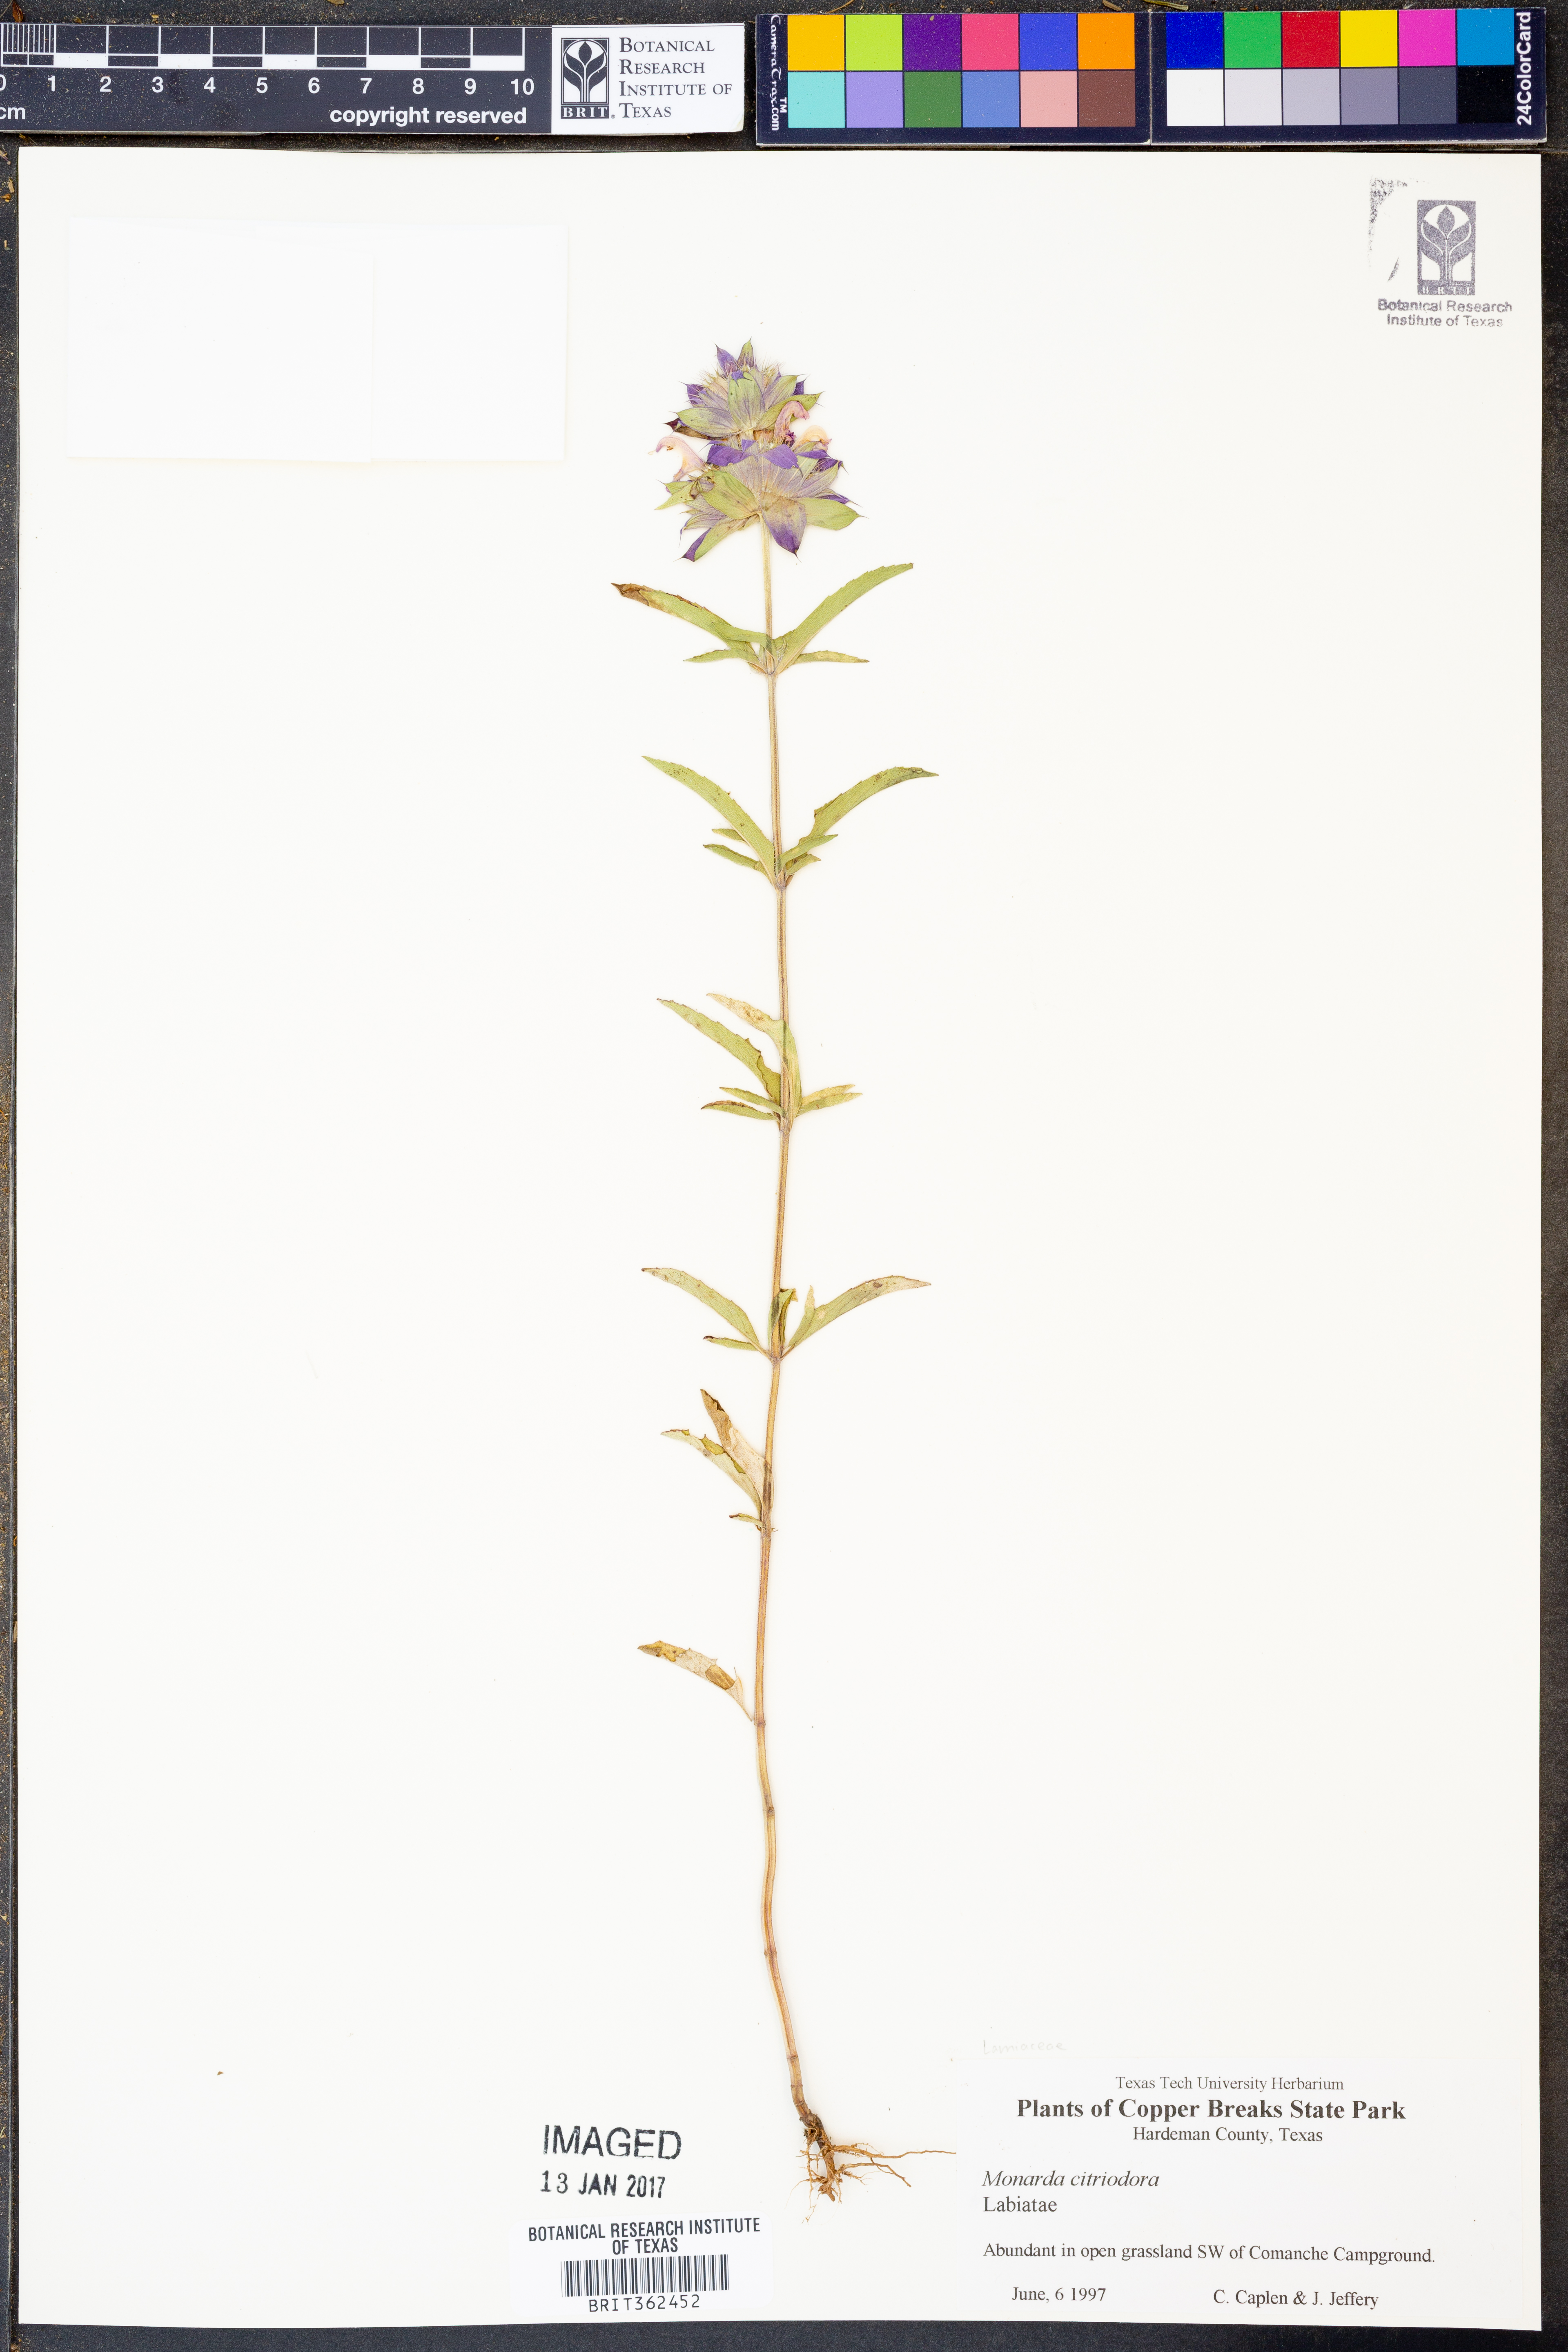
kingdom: Plantae
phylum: Tracheophyta
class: Magnoliopsida
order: Lamiales
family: Lamiaceae
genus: Monarda
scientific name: Monarda citriodora
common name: Lemon beebalm
